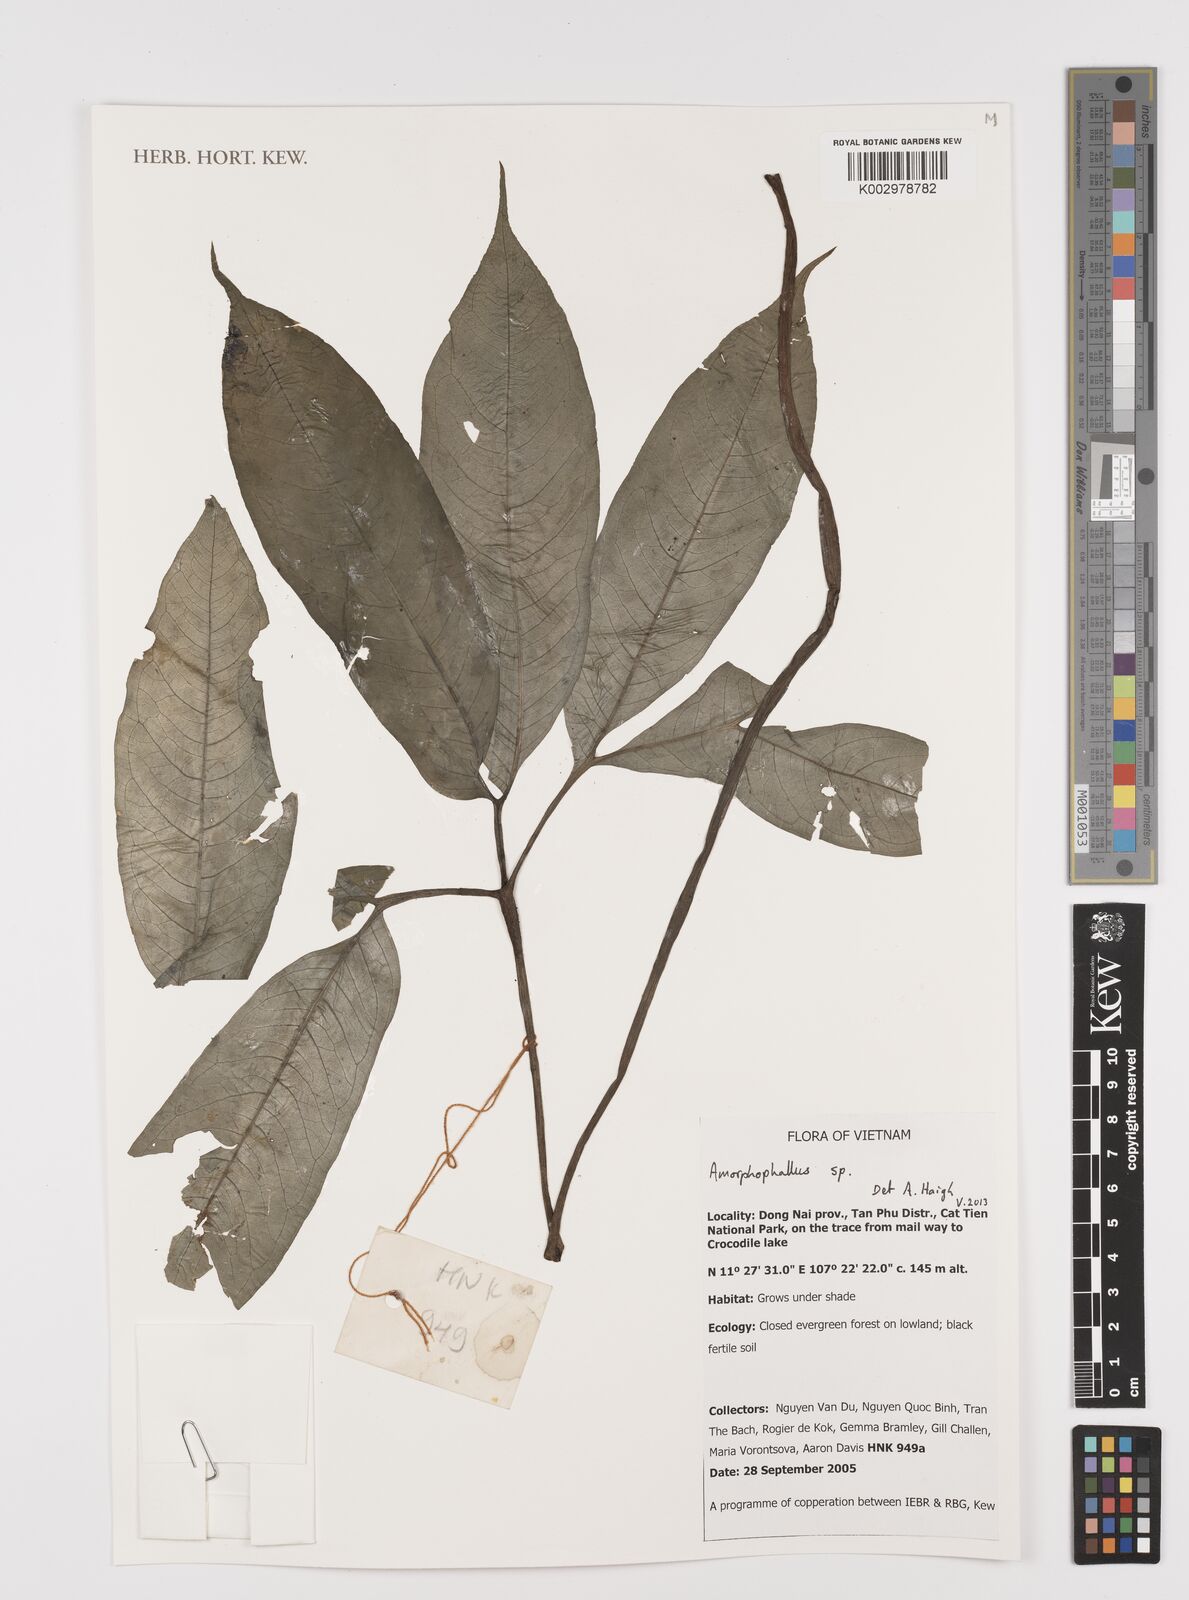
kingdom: Plantae
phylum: Tracheophyta
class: Liliopsida
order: Alismatales
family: Araceae
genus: Amorphophallus
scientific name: Amorphophallus
